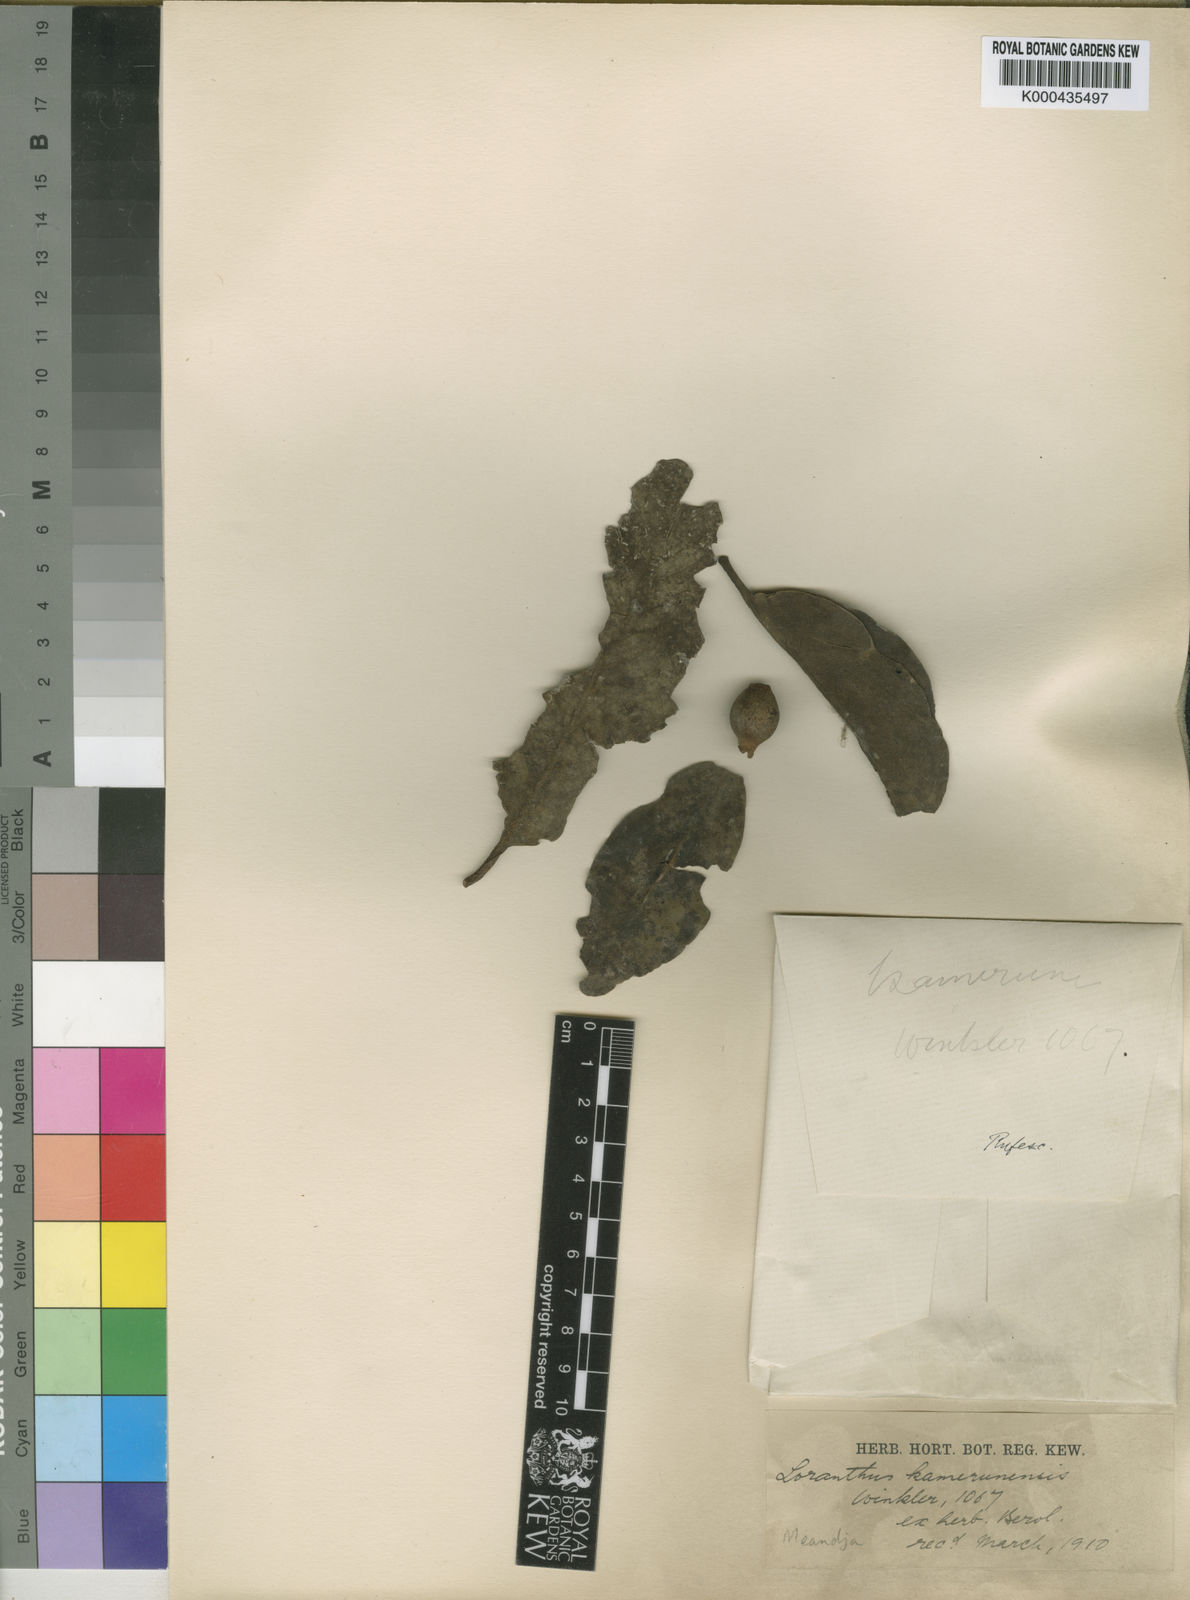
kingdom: Plantae
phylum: Tracheophyta
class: Magnoliopsida
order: Santalales
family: Loranthaceae
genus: Phragmanthera
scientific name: Phragmanthera kamerunensis
